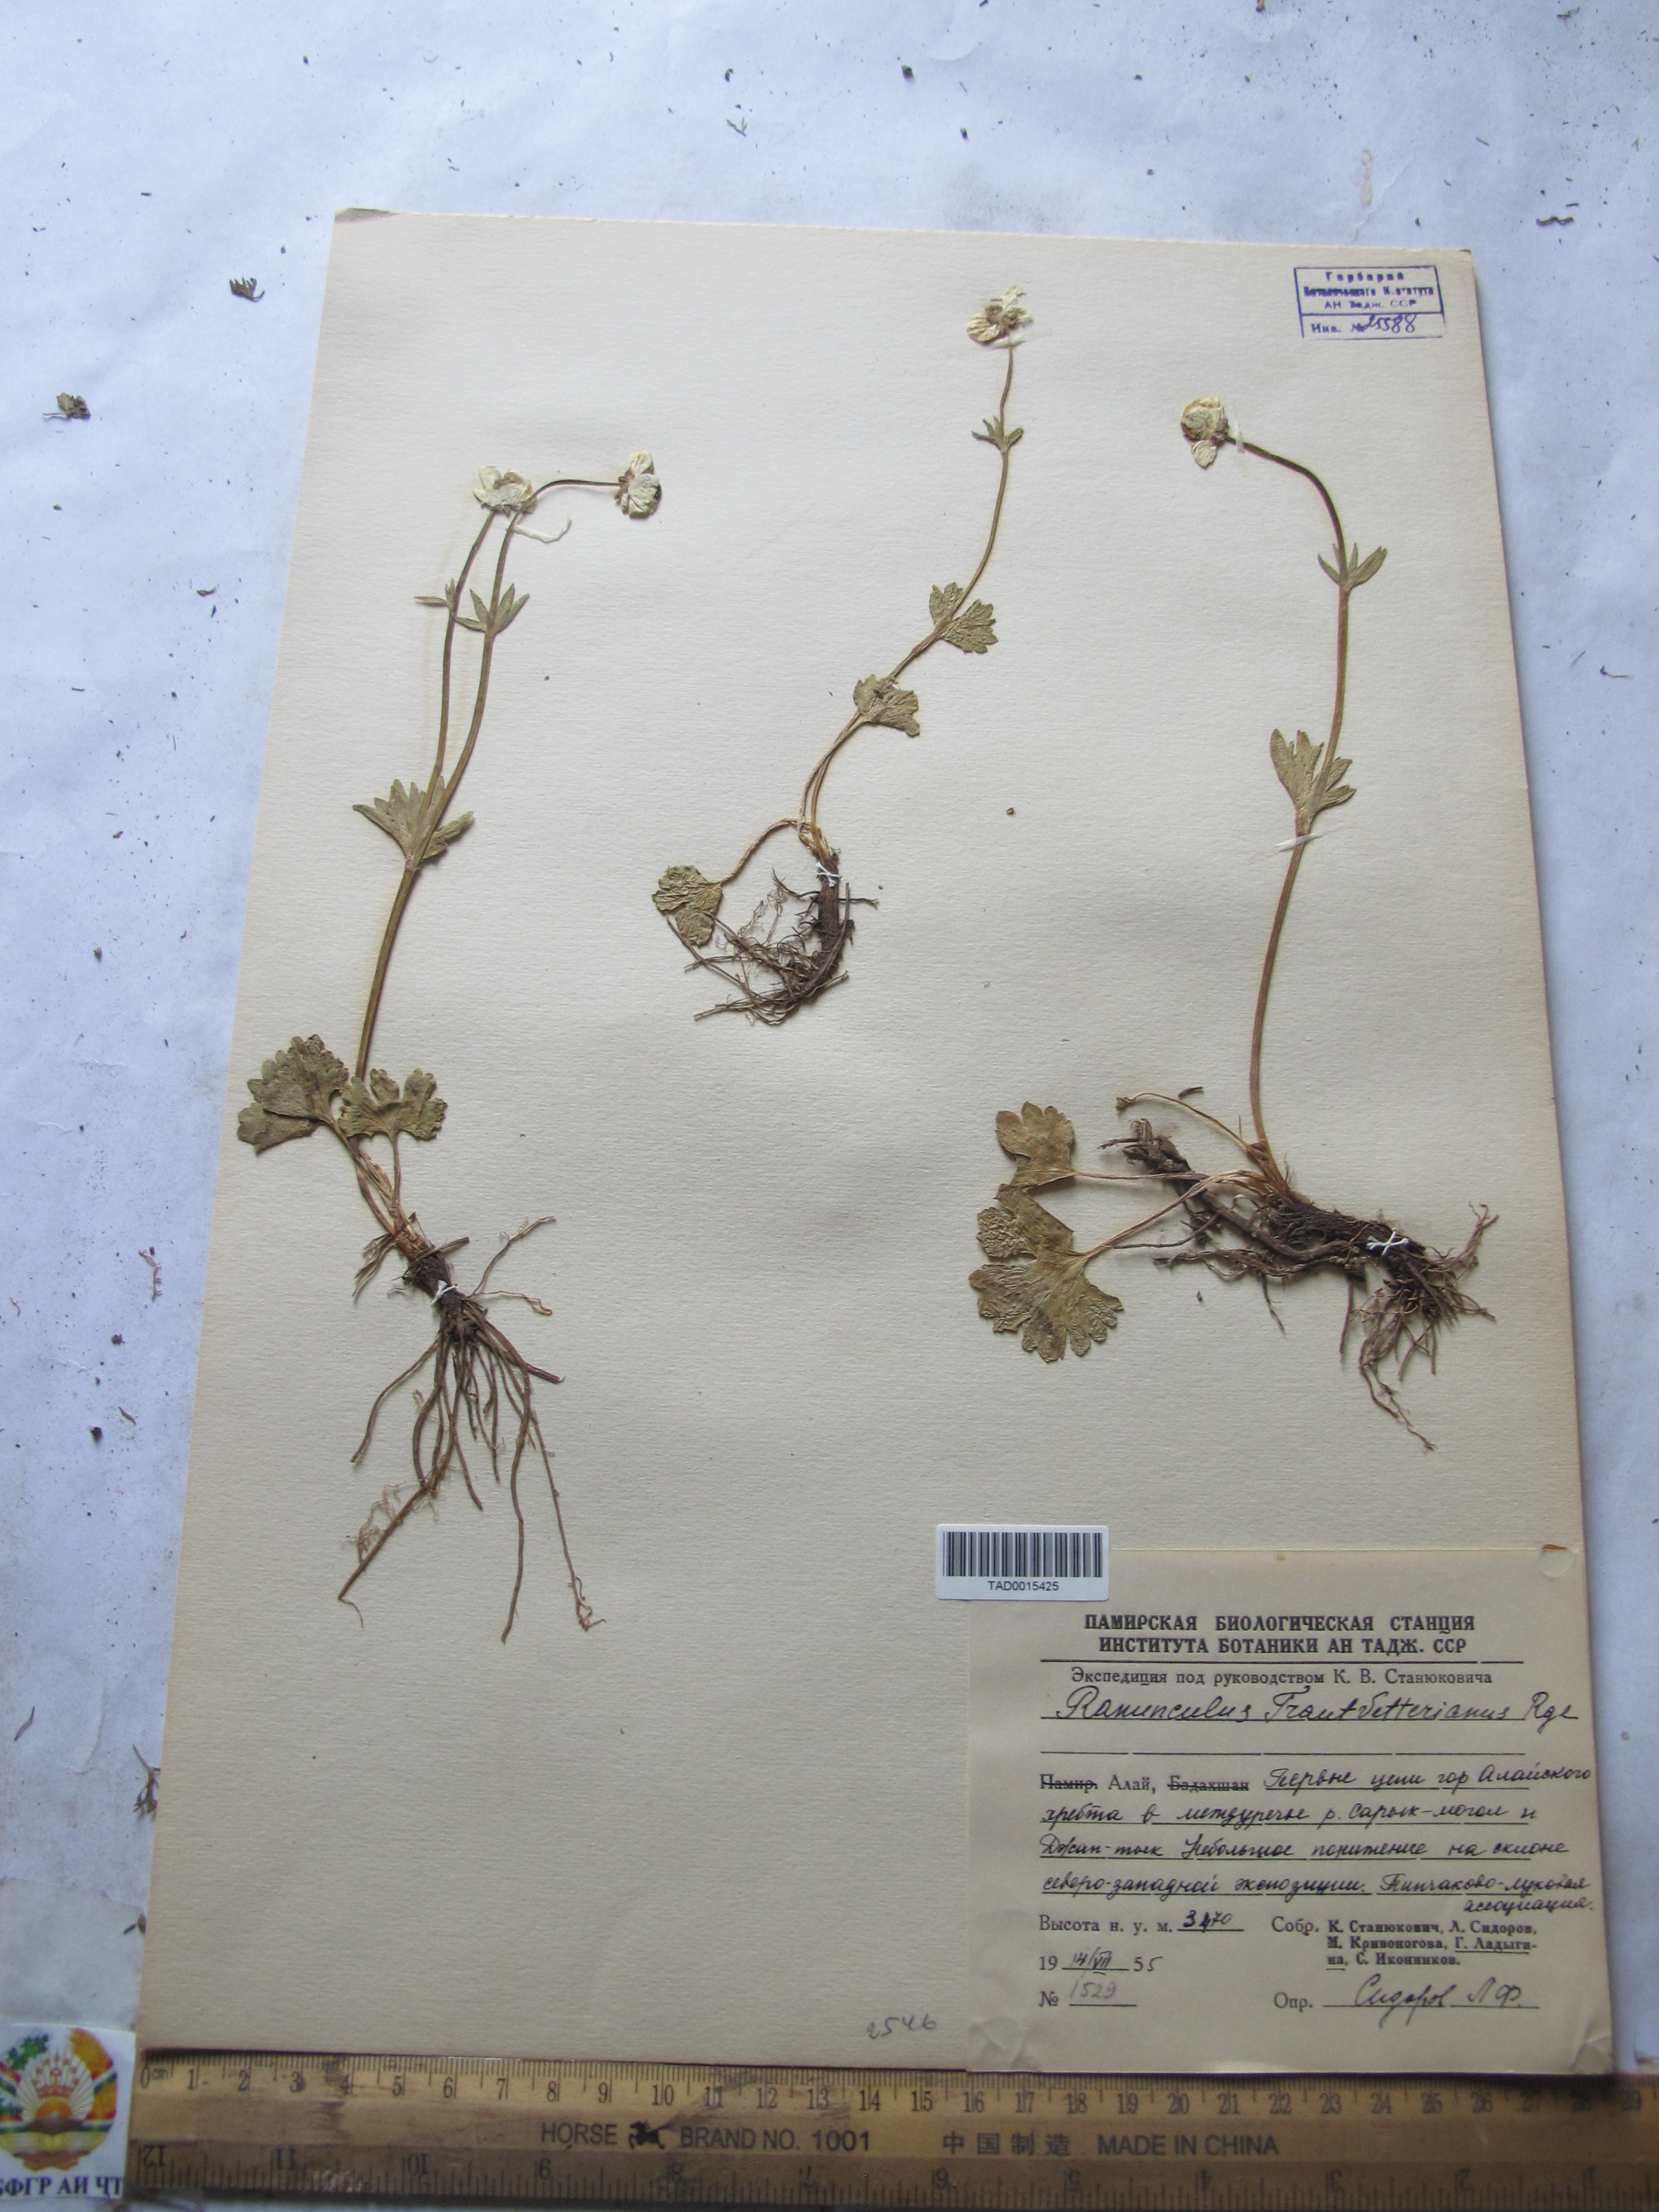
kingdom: Plantae
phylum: Tracheophyta
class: Magnoliopsida
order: Ranunculales
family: Ranunculaceae
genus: Ranunculus
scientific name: Ranunculus songaricus
